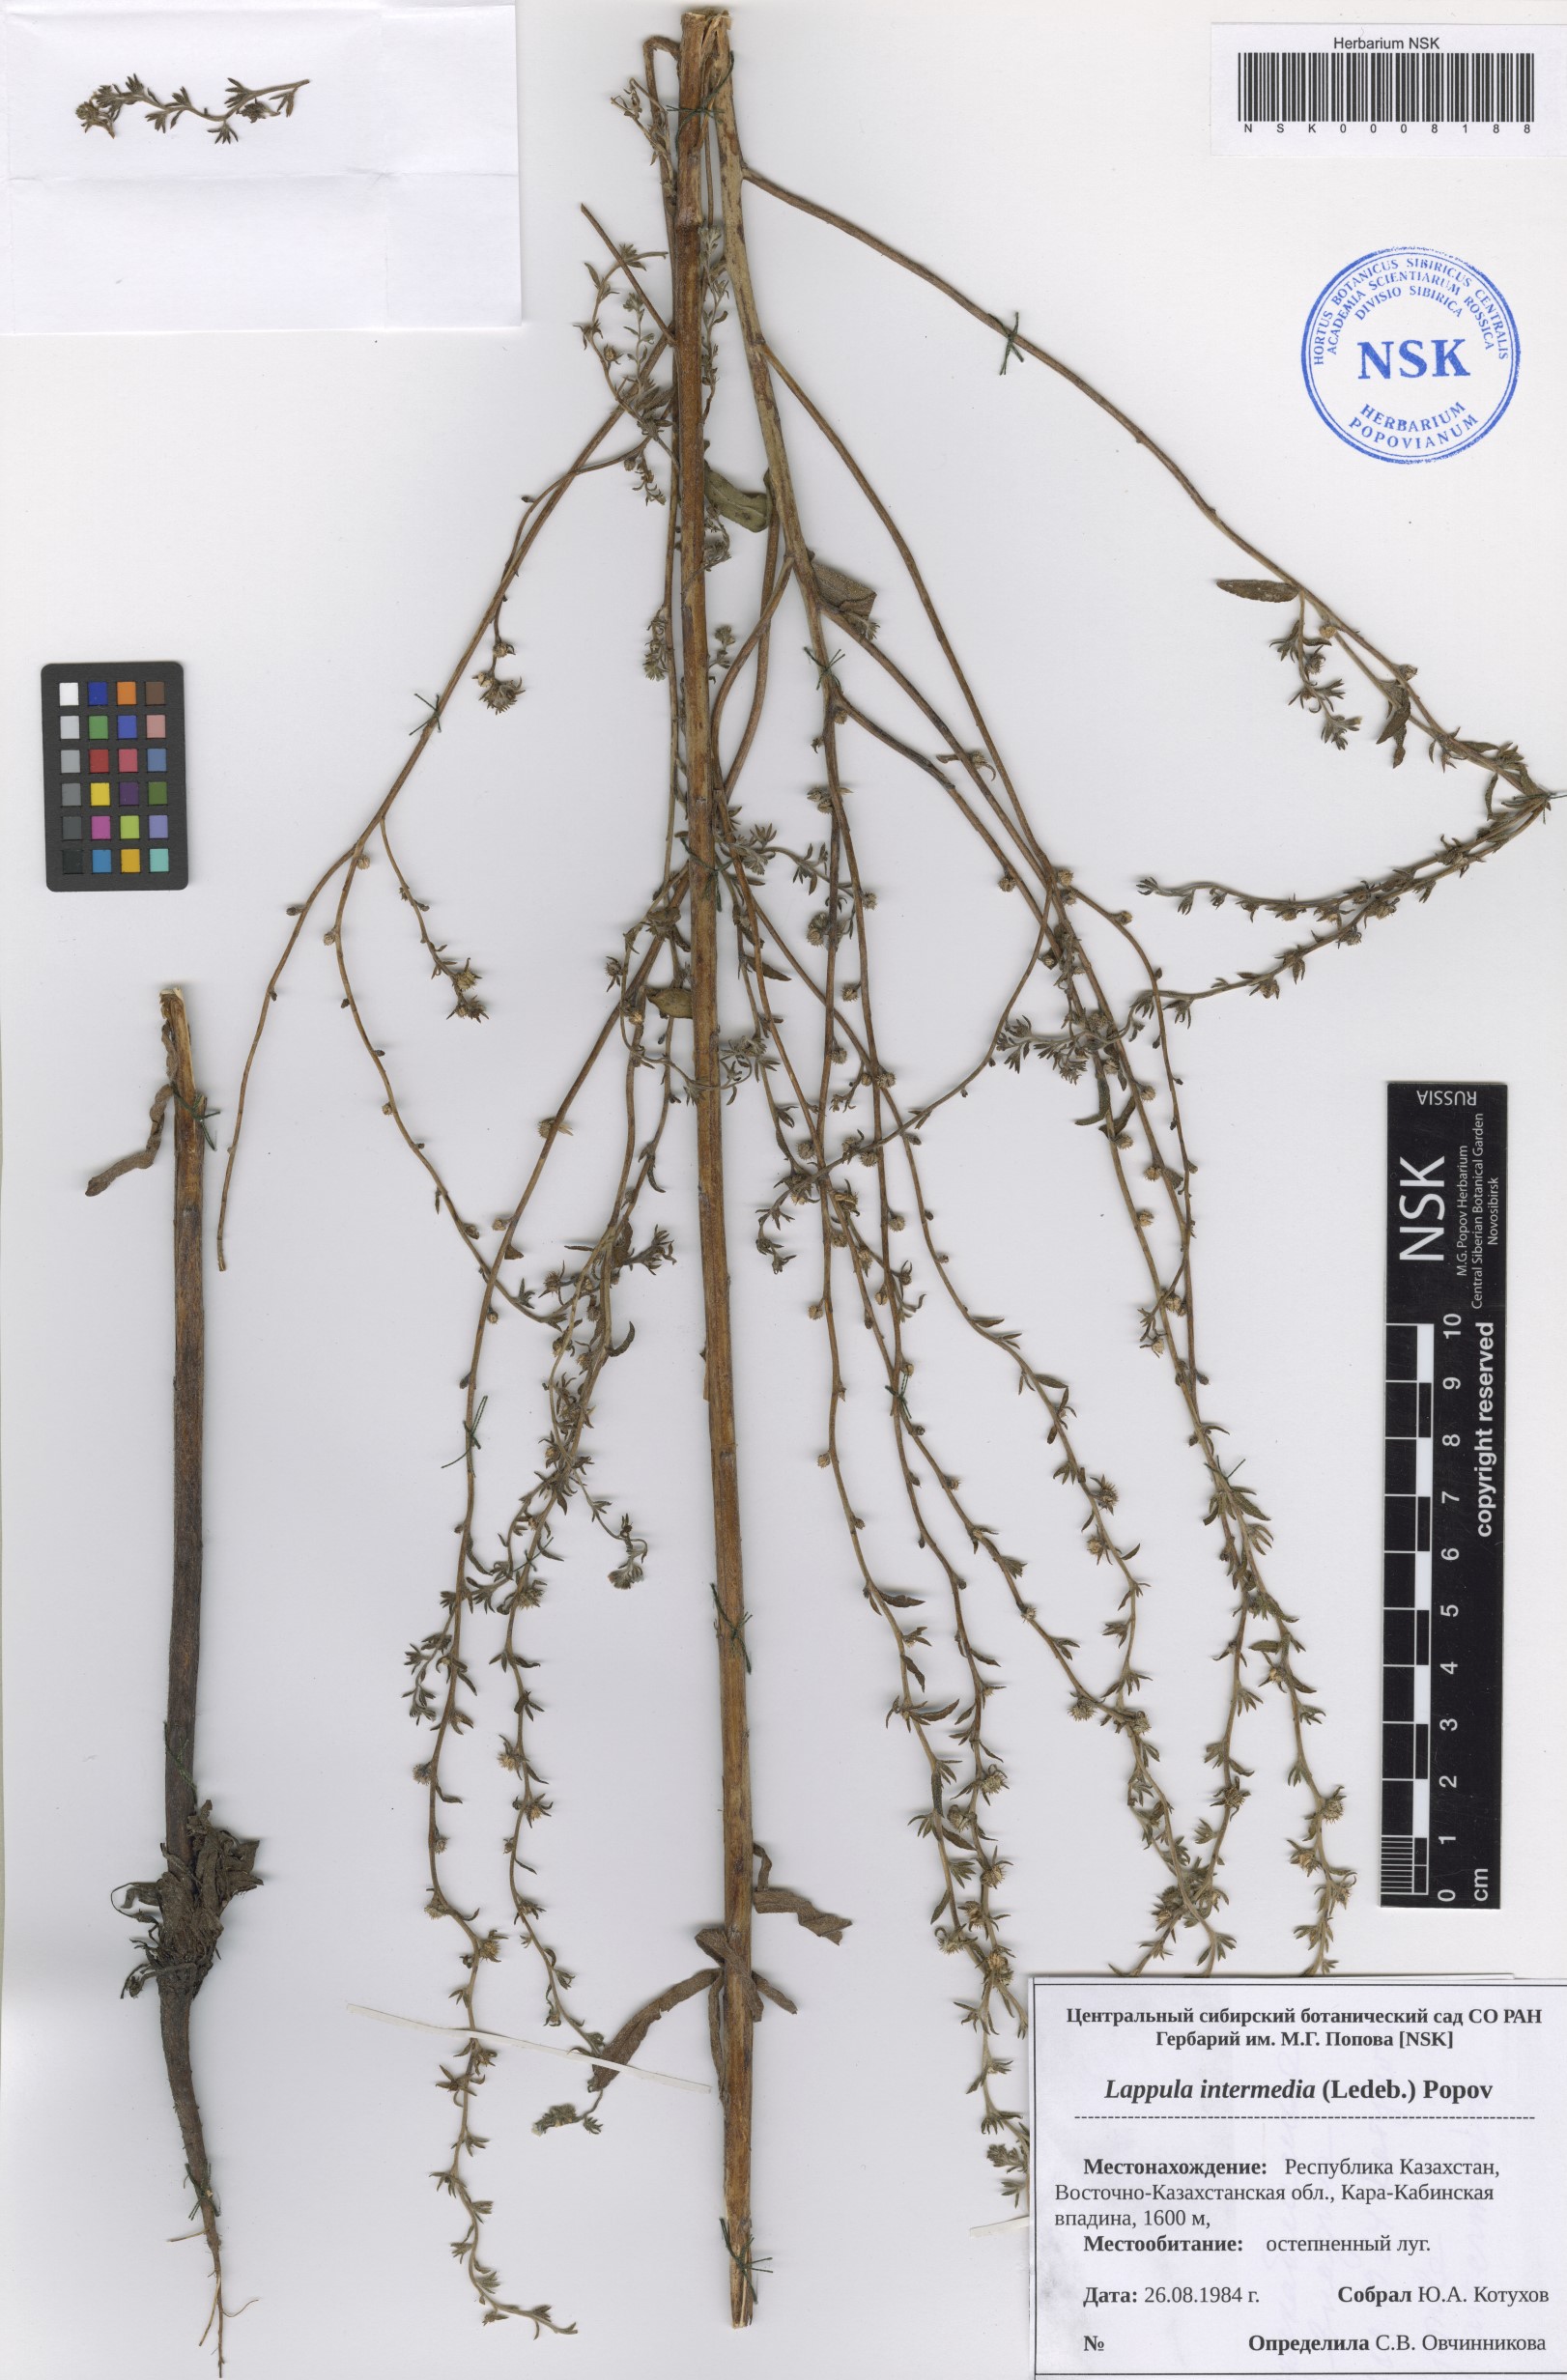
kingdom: Plantae
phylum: Tracheophyta
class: Magnoliopsida
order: Boraginales
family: Boraginaceae
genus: Lappula
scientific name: Lappula intermedia
